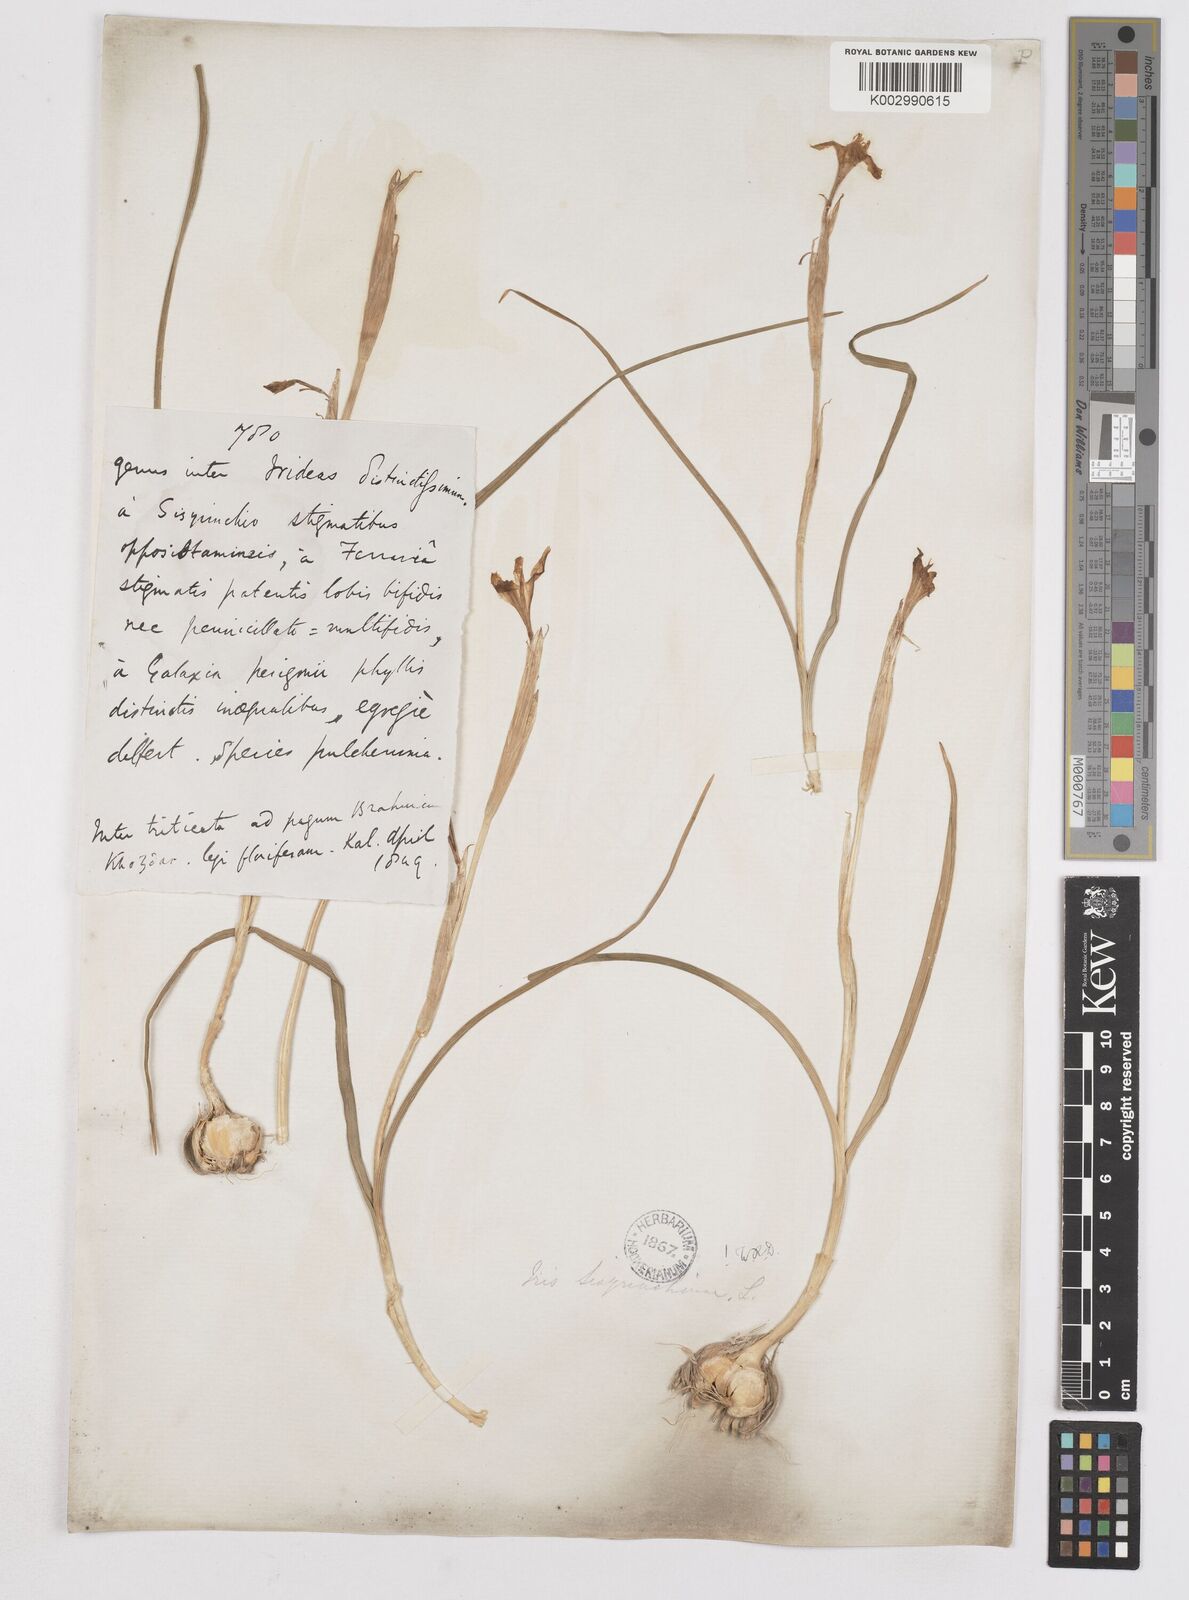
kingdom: Plantae
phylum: Tracheophyta
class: Liliopsida
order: Asparagales
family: Iridaceae
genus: Moraea
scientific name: Moraea sisyrinchium
